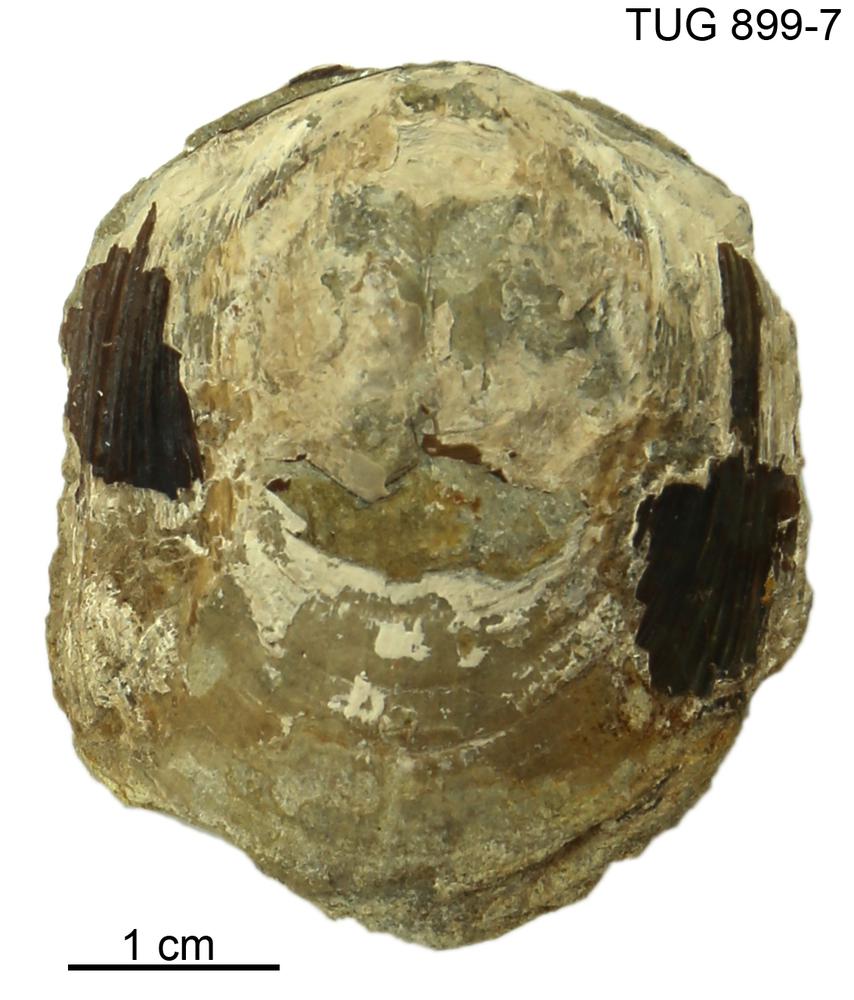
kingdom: Animalia
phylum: Brachiopoda
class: Lingulata
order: Lingulida
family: Pseudolingulidae
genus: Pseudolingula
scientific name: Pseudolingula Crania quadrata
